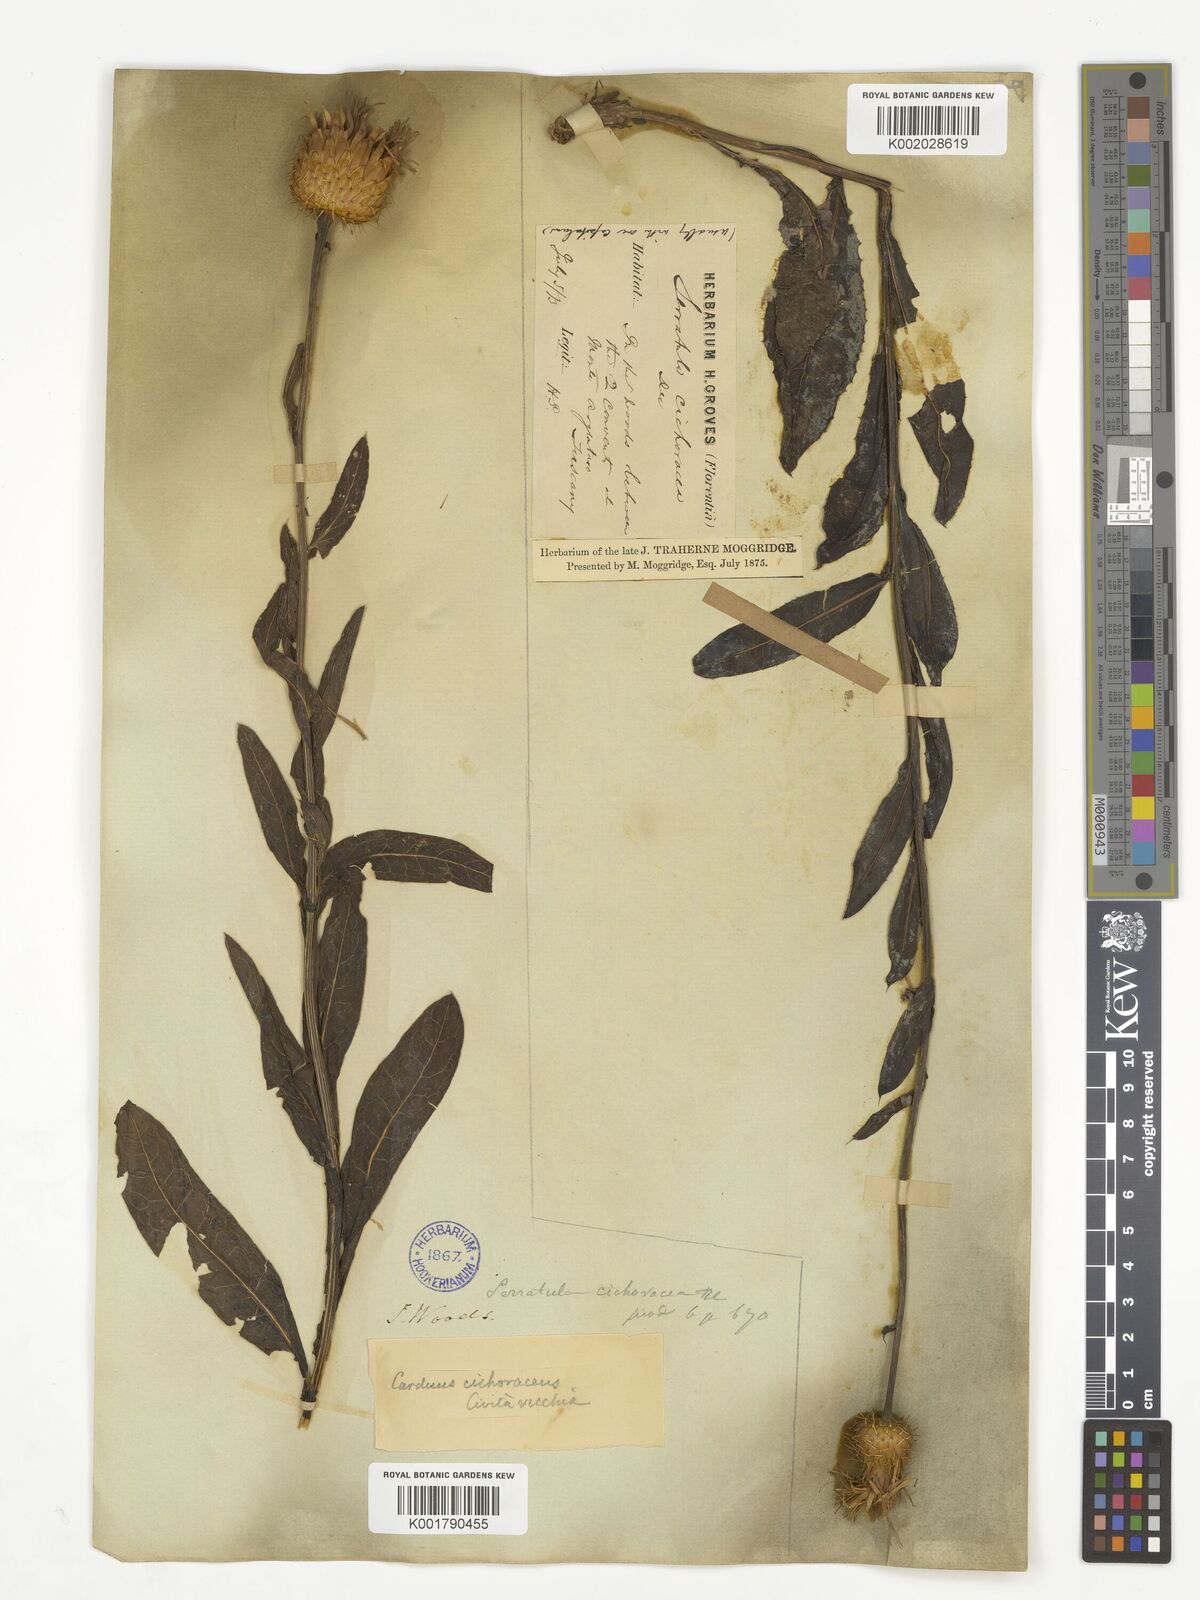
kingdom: Plantae
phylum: Tracheophyta
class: Magnoliopsida
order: Asterales
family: Asteraceae
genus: Klasea
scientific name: Klasea flavescens
